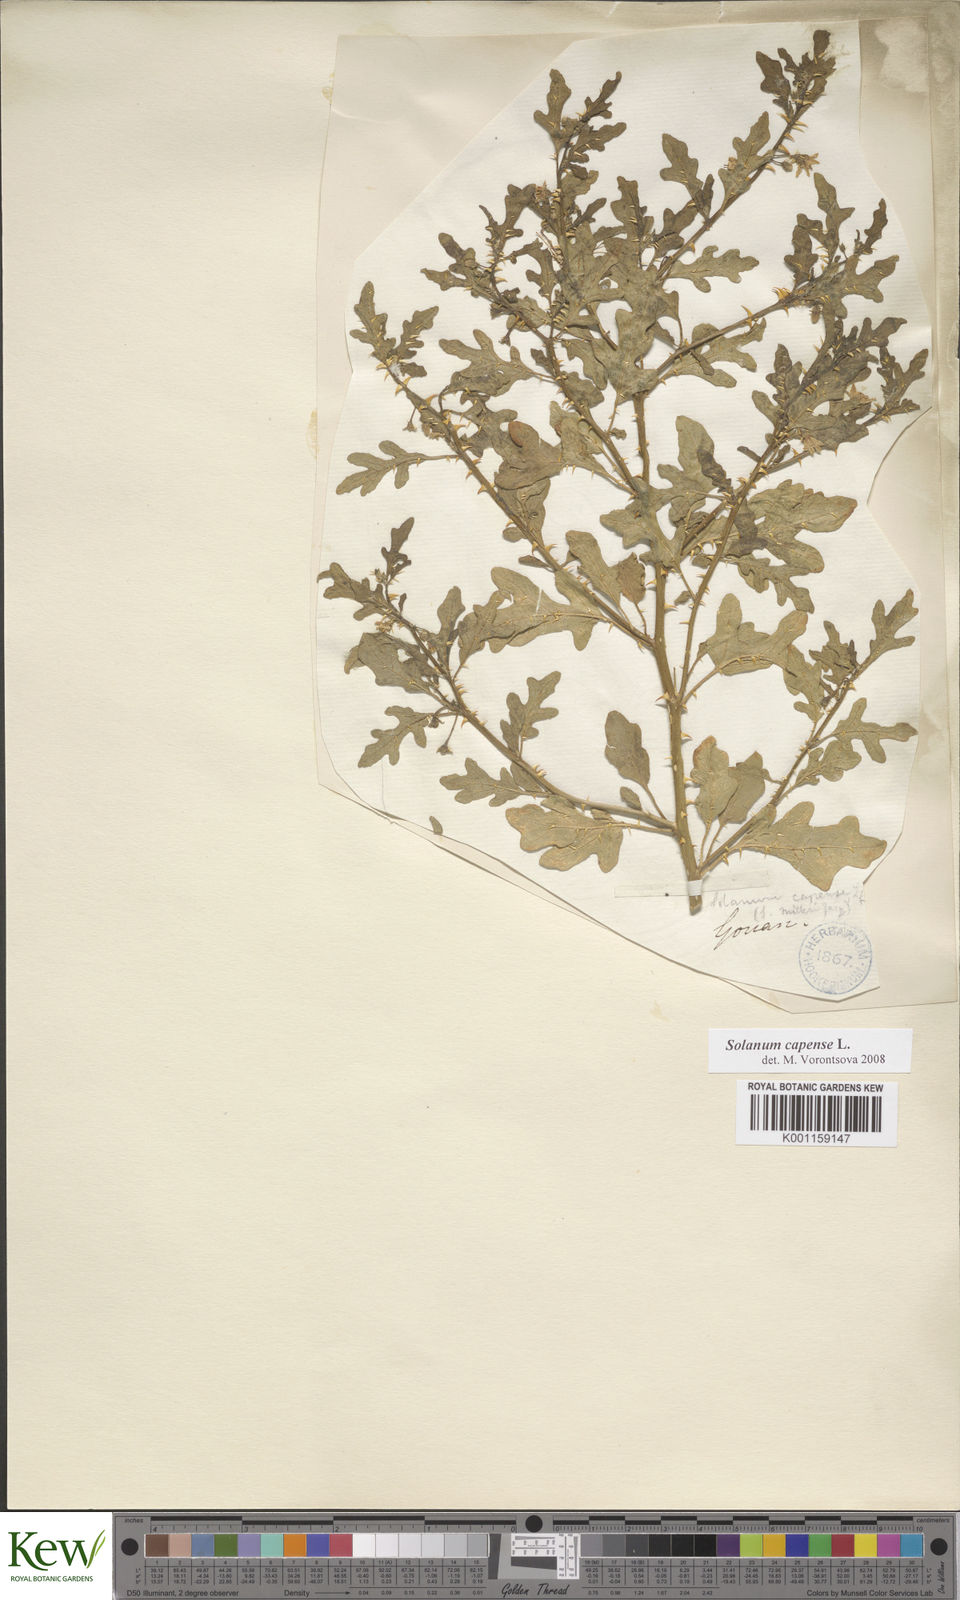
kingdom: Plantae
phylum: Tracheophyta
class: Magnoliopsida
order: Solanales
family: Solanaceae
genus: Solanum
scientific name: Solanum capense
